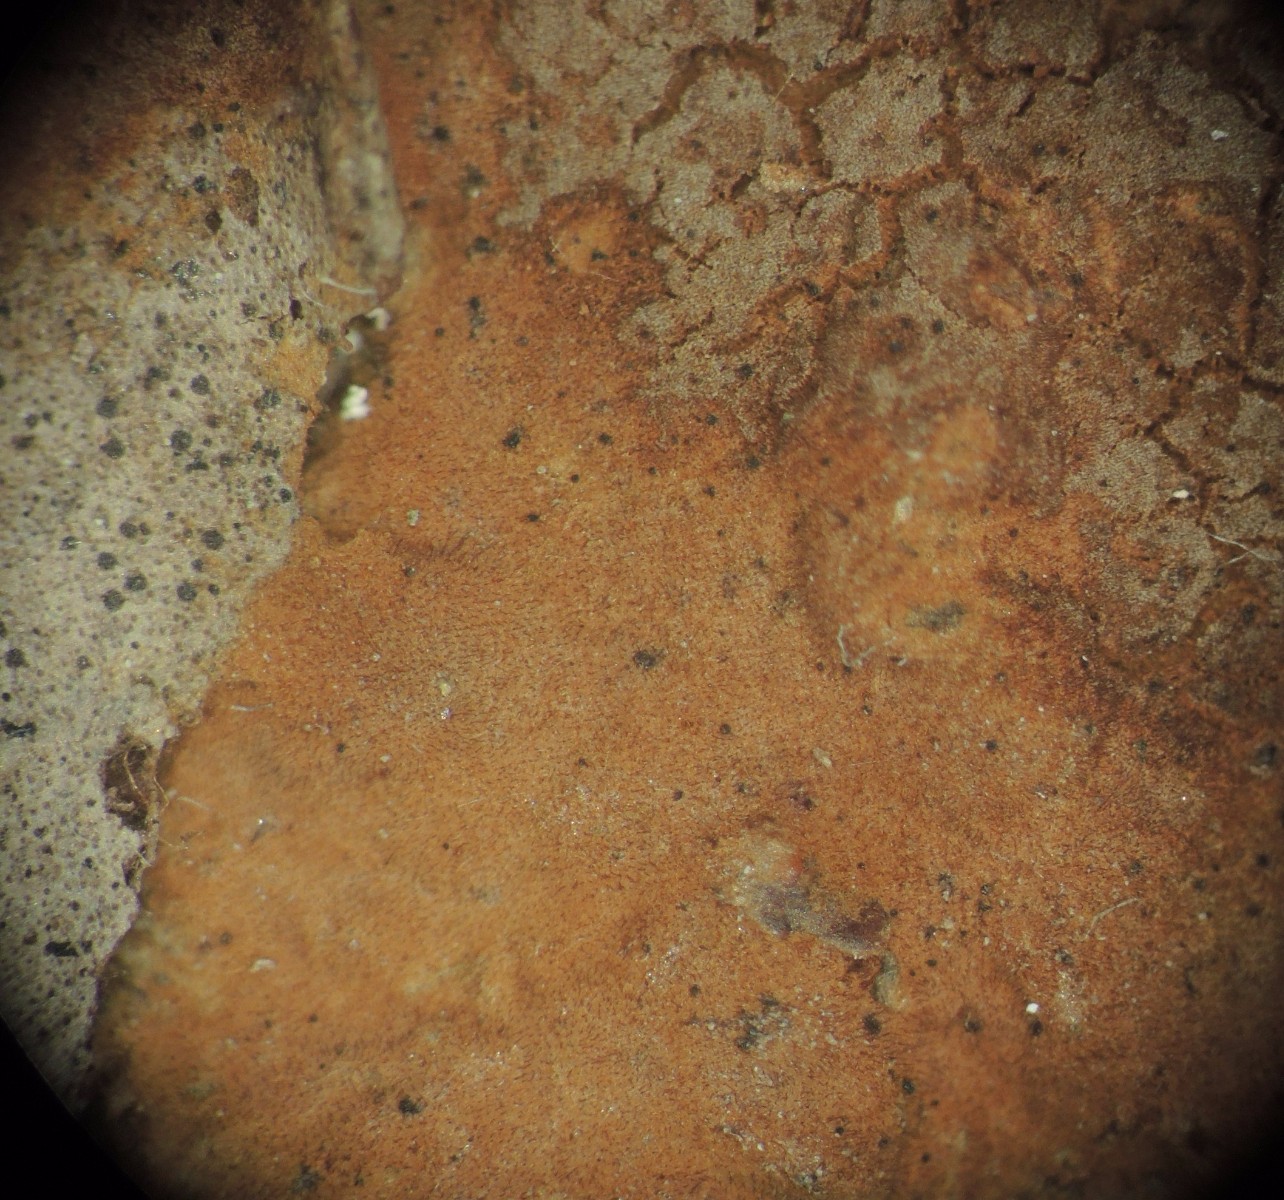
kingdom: Fungi
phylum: Basidiomycota
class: Agaricomycetes
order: Hymenochaetales
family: Hymenochaetaceae
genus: Hymenochaete
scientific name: Hymenochaete cinnamomea
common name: gyldenbrun ruslædersvamp
